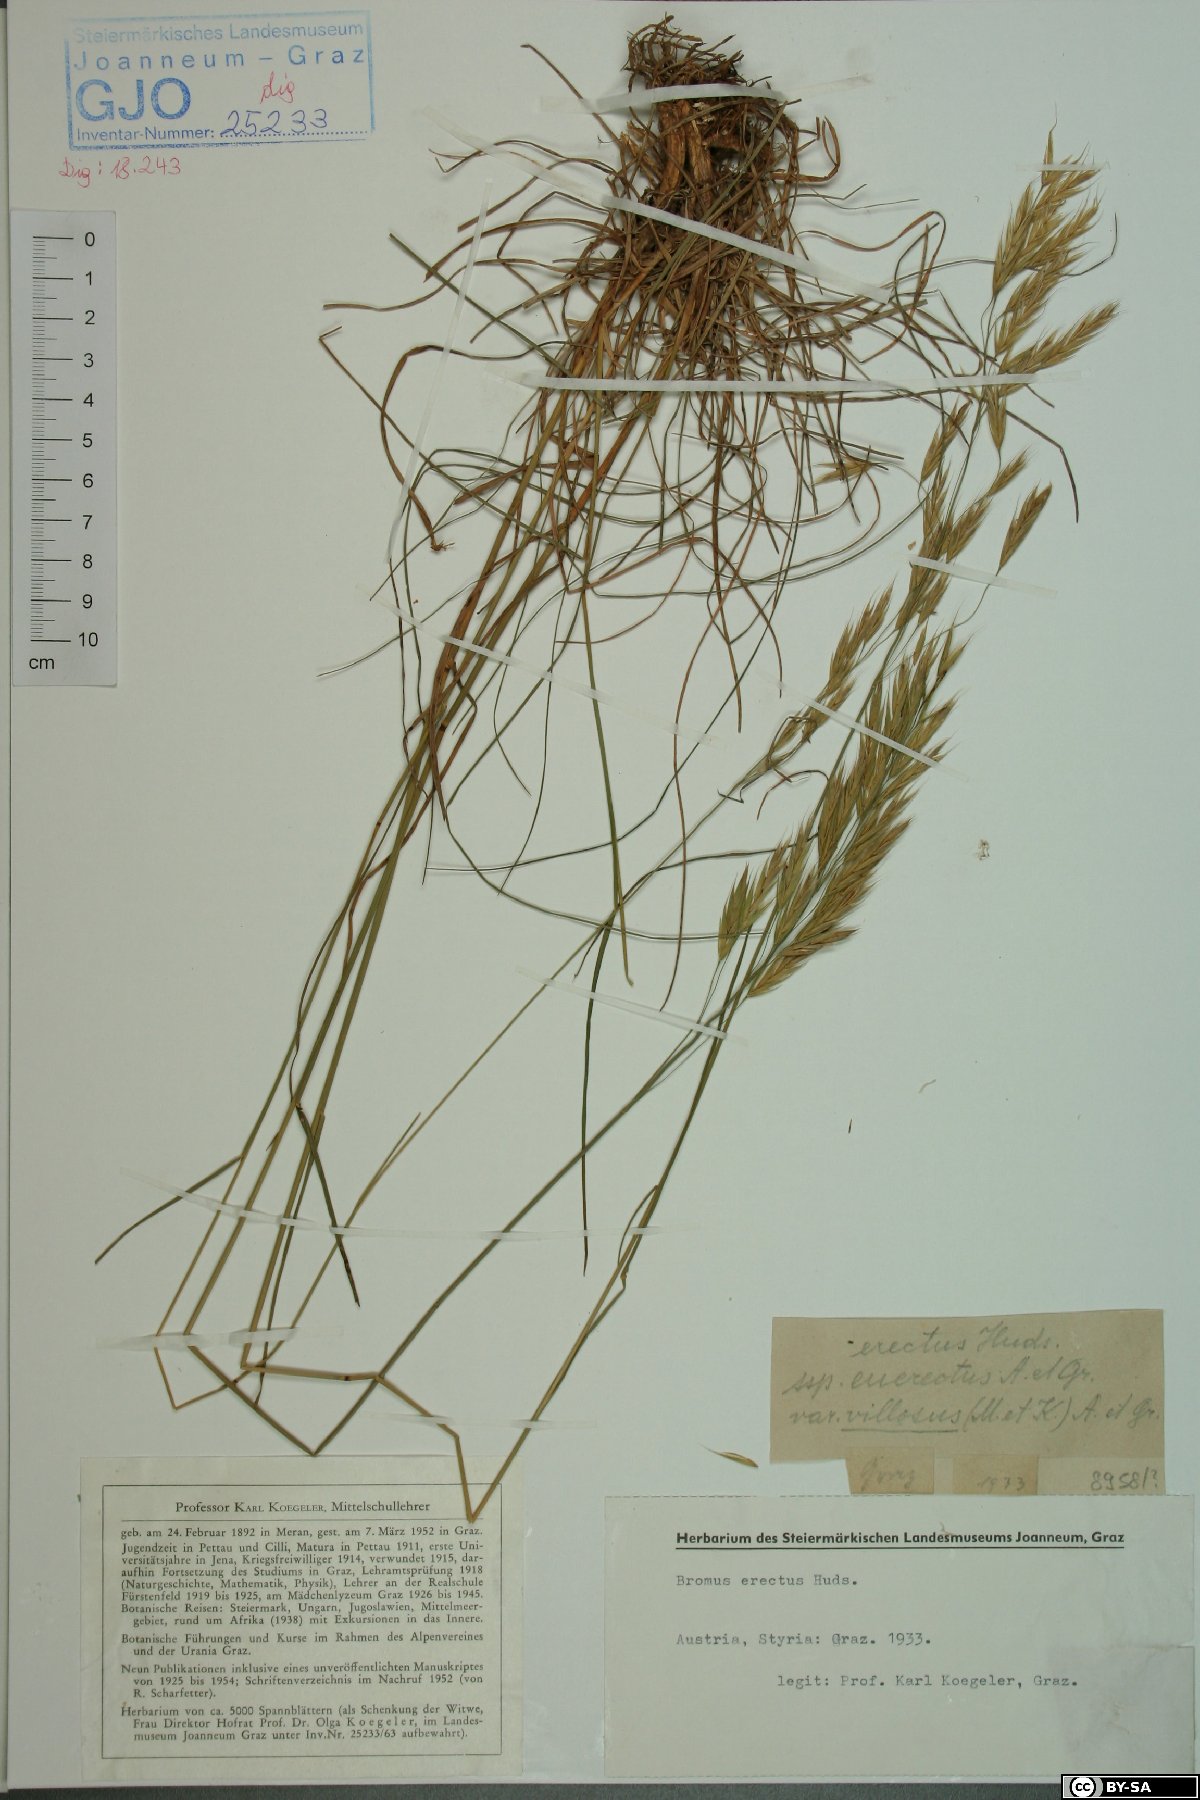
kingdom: Plantae
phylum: Tracheophyta
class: Liliopsida
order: Poales
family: Poaceae
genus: Bromus
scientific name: Bromus erectus
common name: Erect brome
